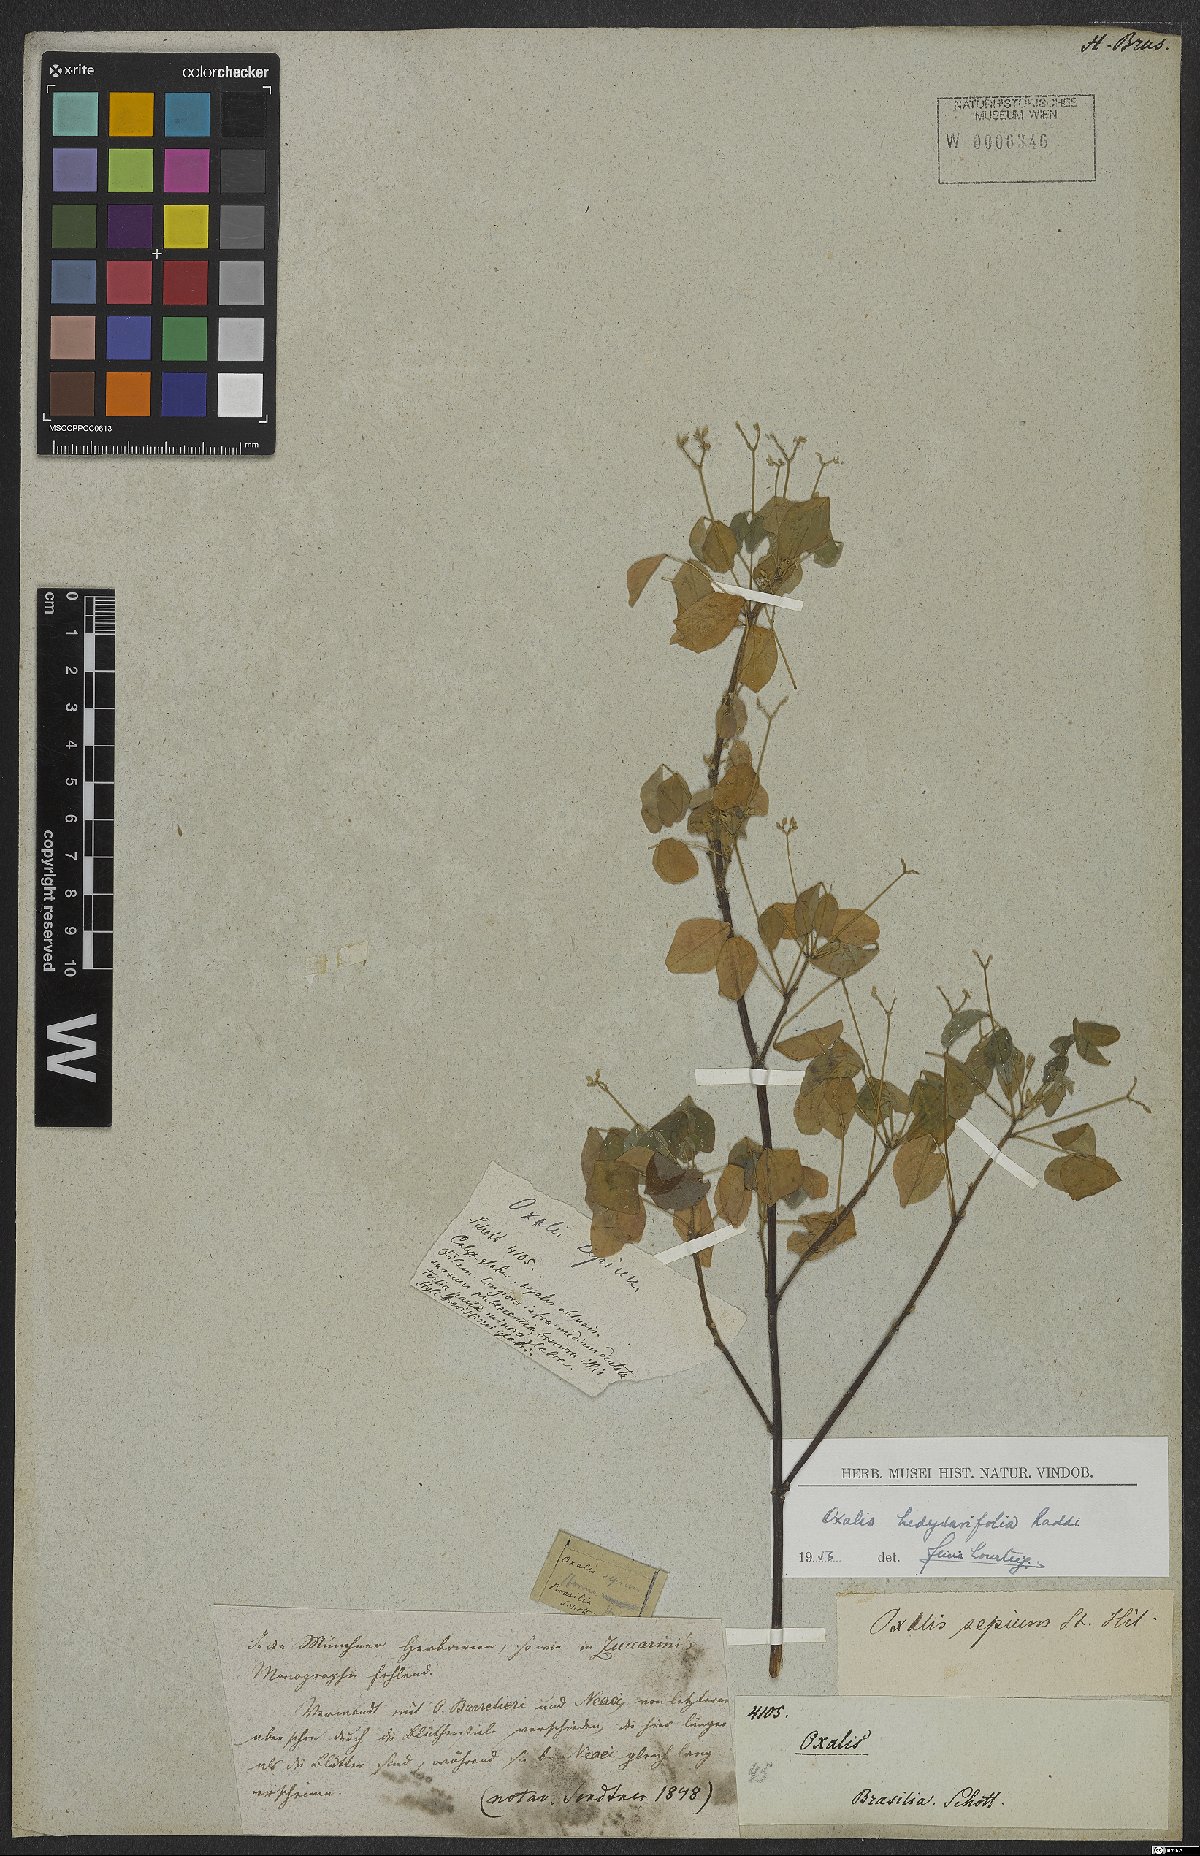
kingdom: Plantae
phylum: Tracheophyta
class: Magnoliopsida
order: Oxalidales
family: Oxalidaceae
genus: Oxalis
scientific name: Oxalis frutescens
